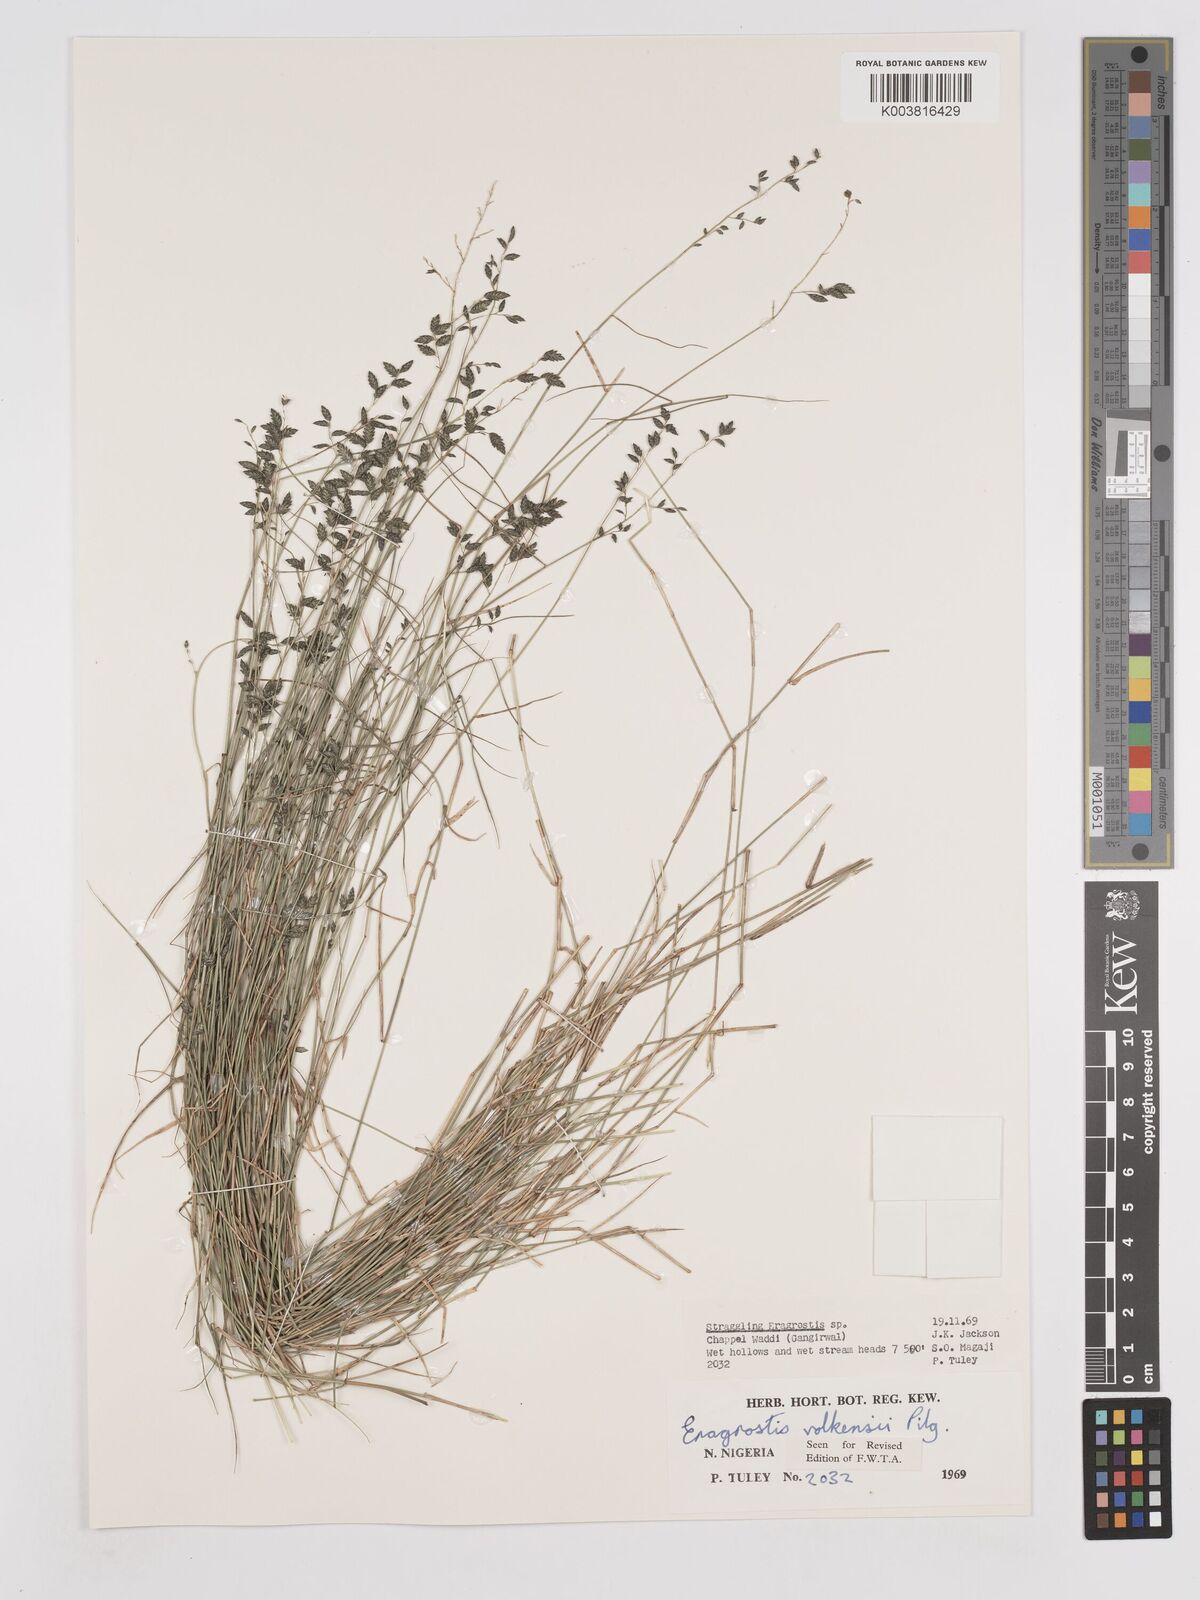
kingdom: Plantae
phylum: Tracheophyta
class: Liliopsida
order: Poales
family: Poaceae
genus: Eragrostis
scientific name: Eragrostis volkensii
